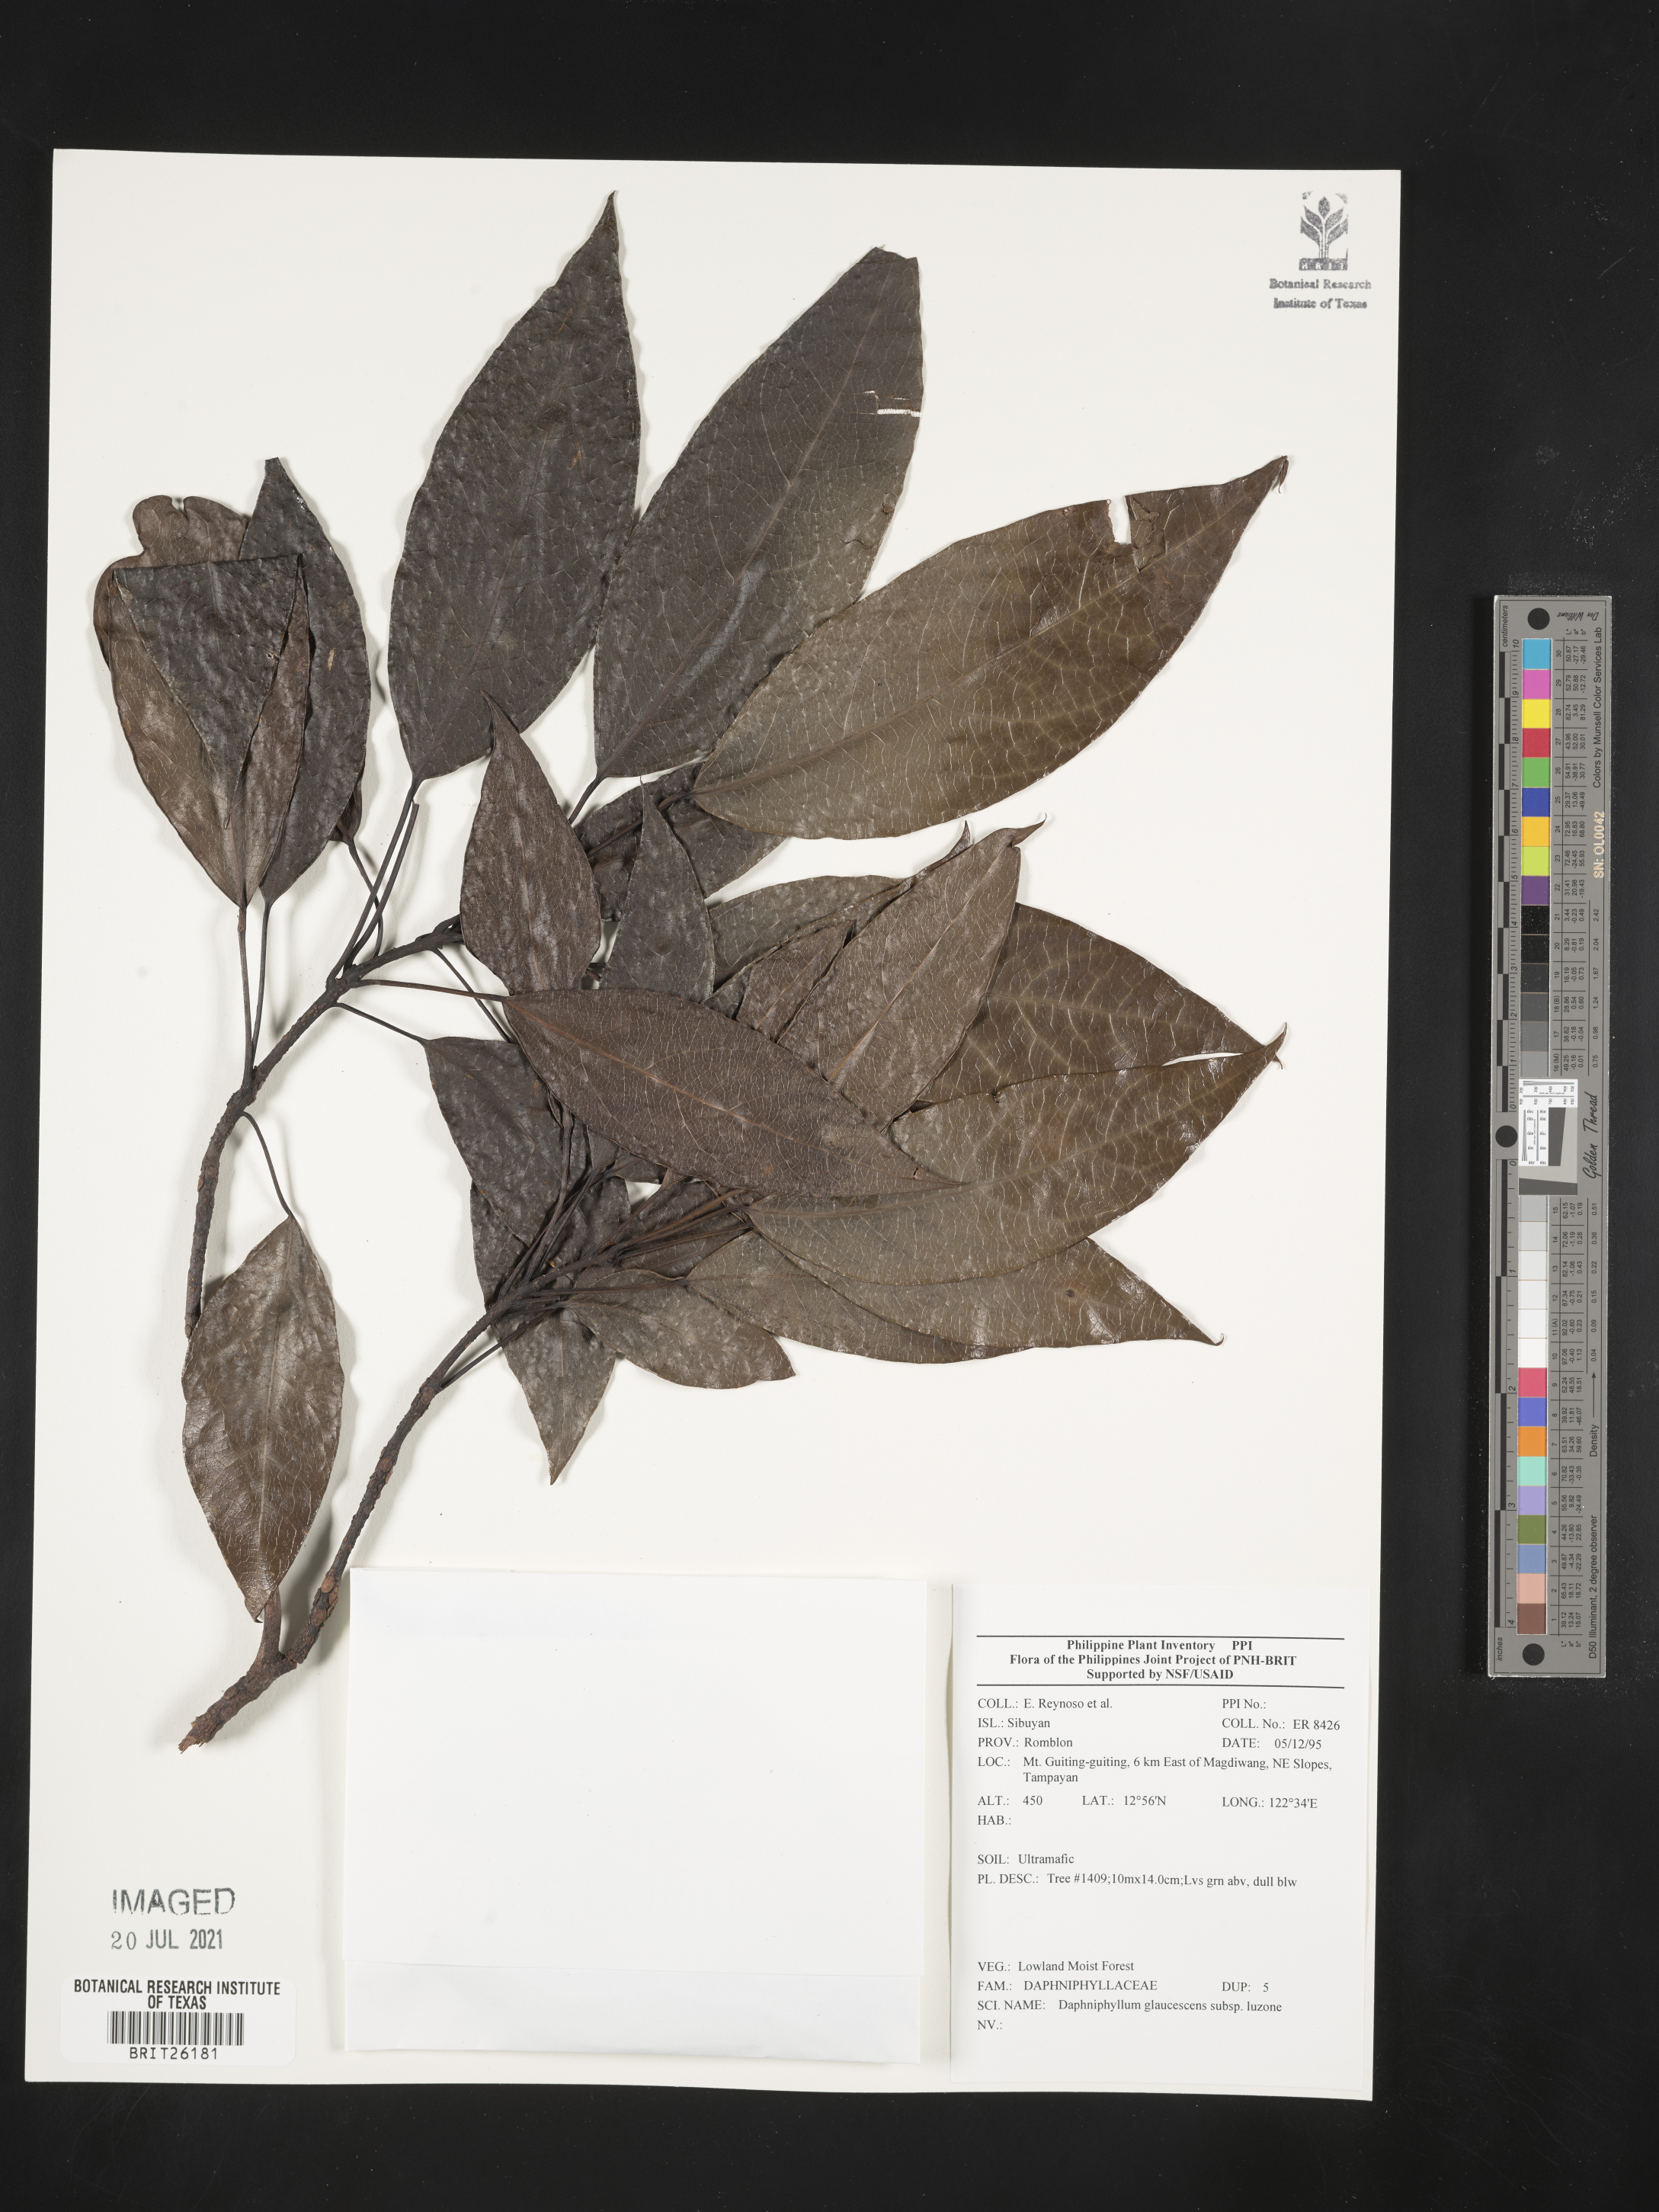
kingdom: Plantae
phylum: Tracheophyta
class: Magnoliopsida
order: Saxifragales
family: Daphniphyllaceae
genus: Daphniphyllum
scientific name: Daphniphyllum glaucescens
